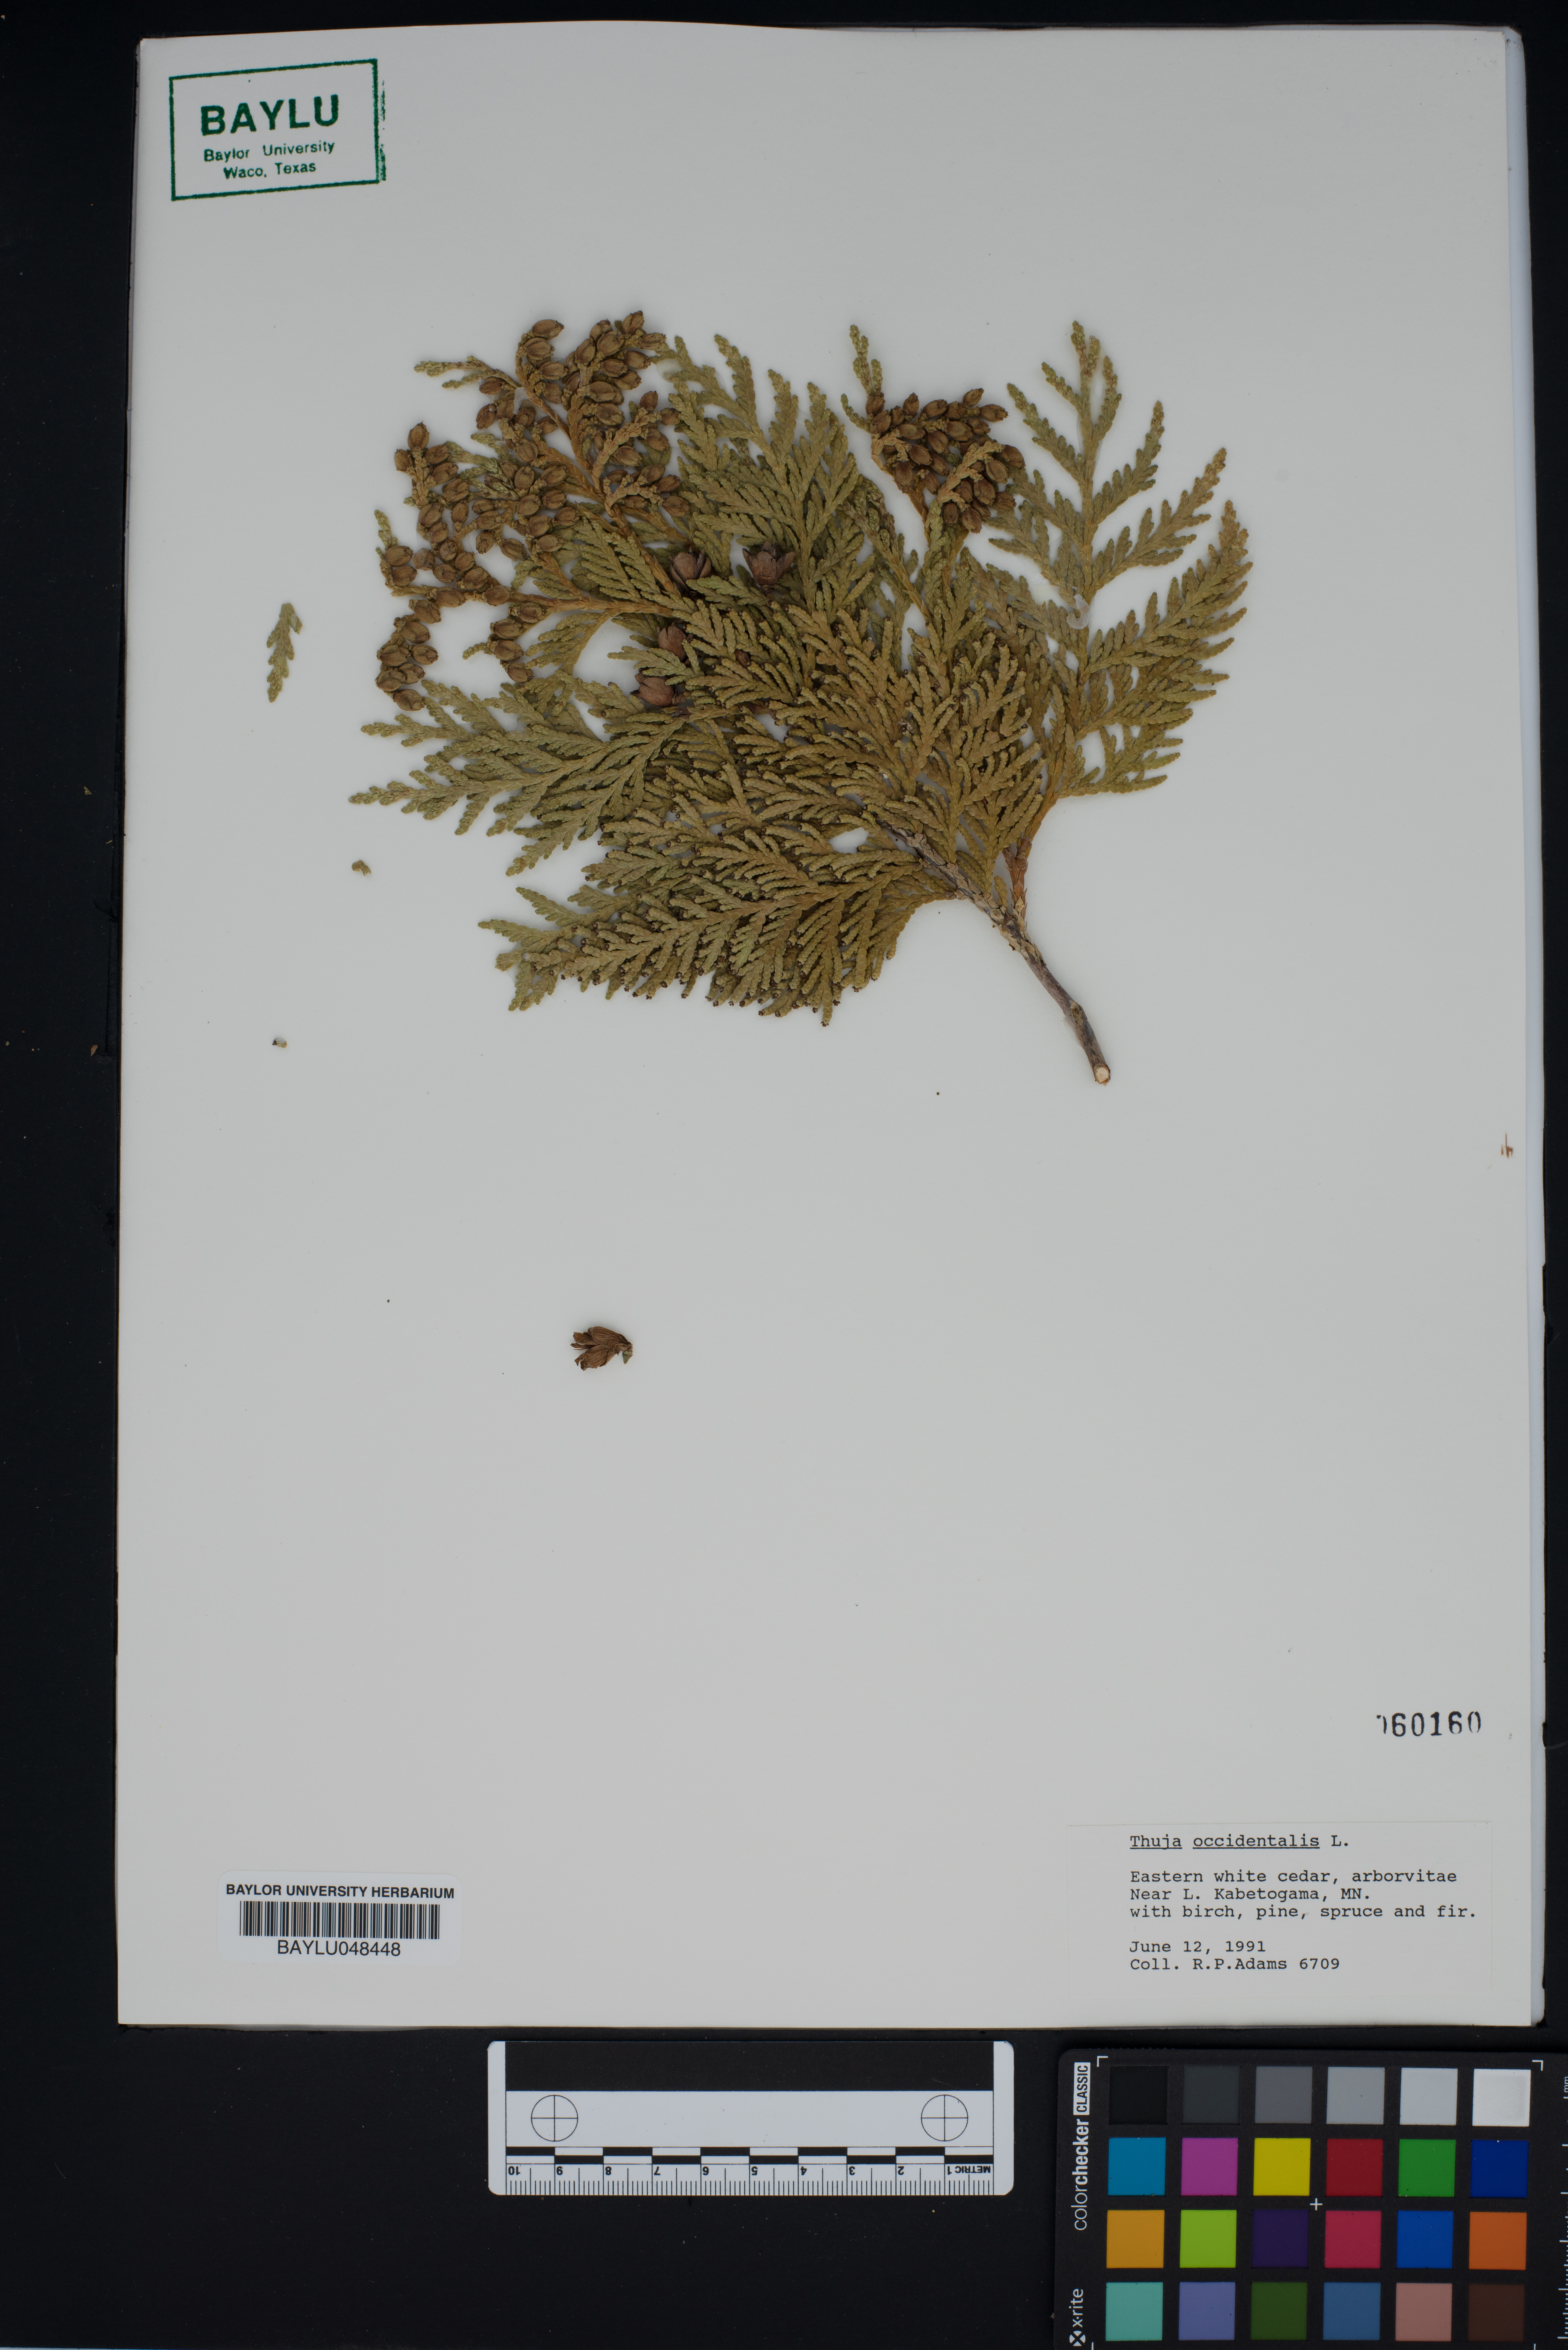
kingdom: Plantae
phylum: Tracheophyta
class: Pinopsida
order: Pinales
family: Cupressaceae
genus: Thuja
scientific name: Thuja occidentalis
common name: Northern white-cedar
